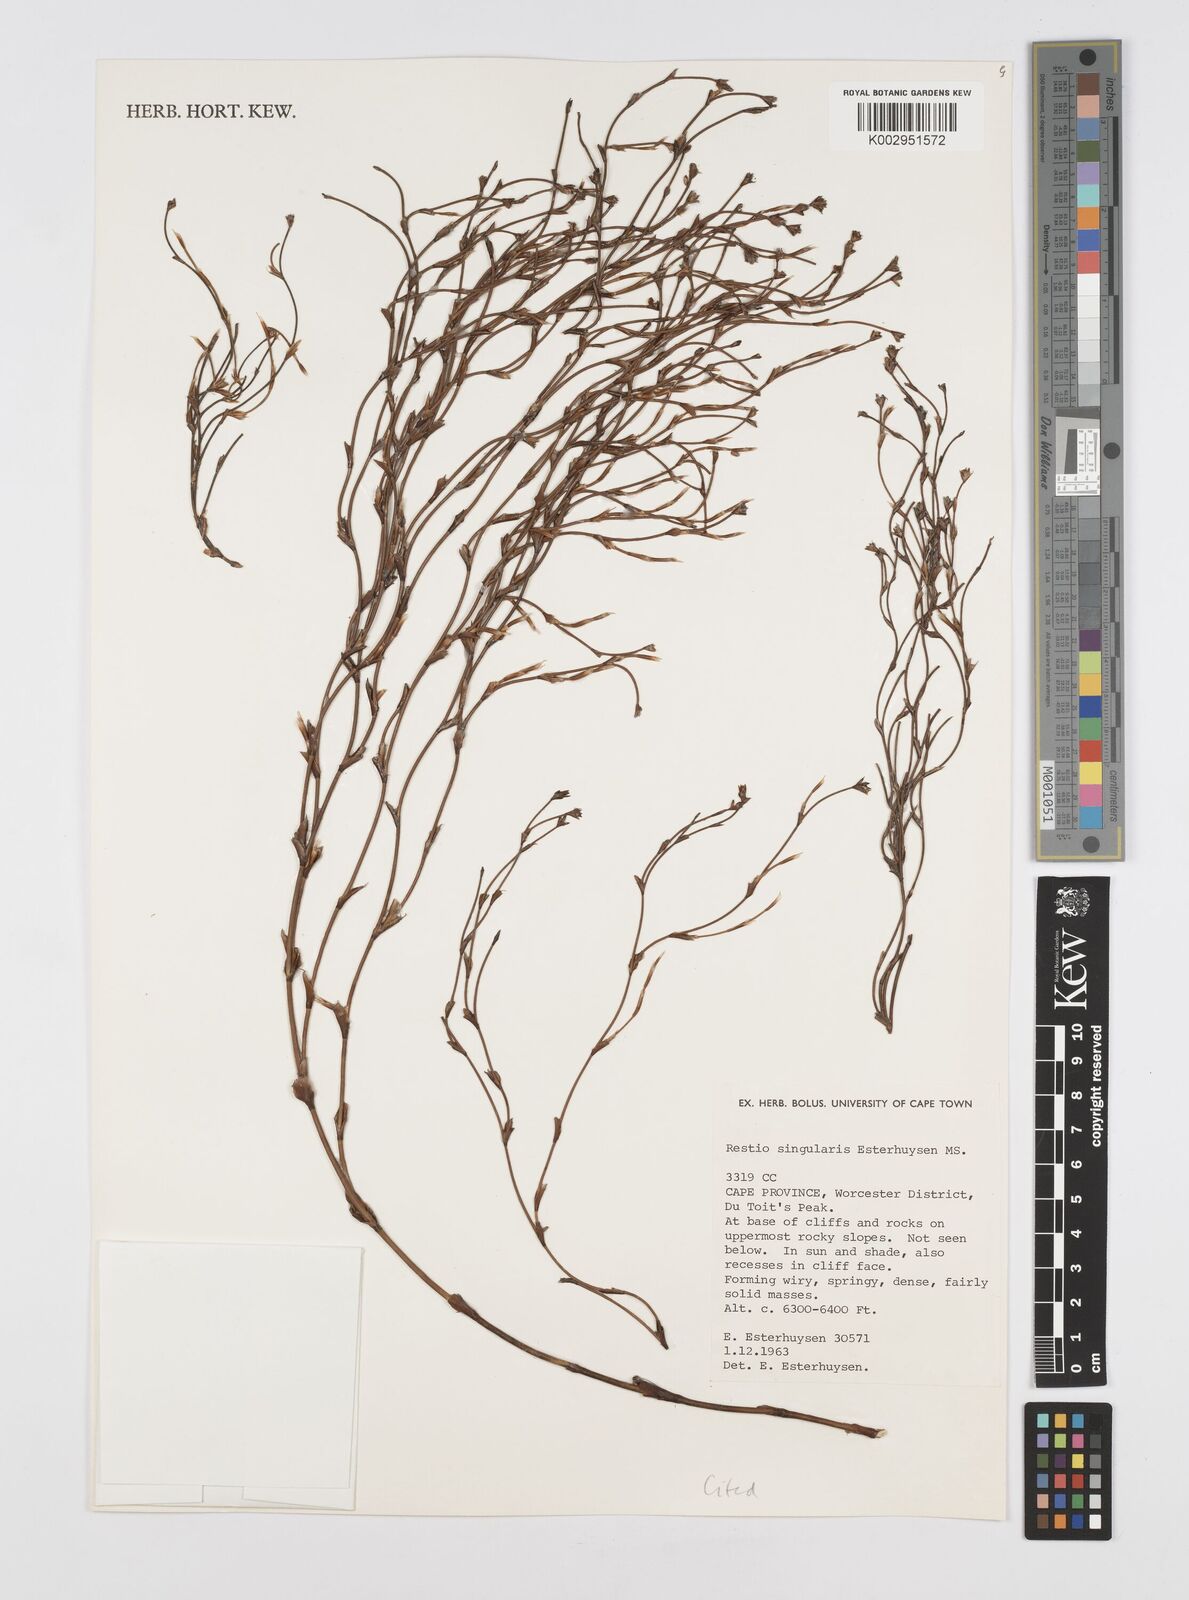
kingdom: Plantae
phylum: Tracheophyta
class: Liliopsida
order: Poales
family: Restionaceae
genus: Restio
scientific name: Restio singularis
